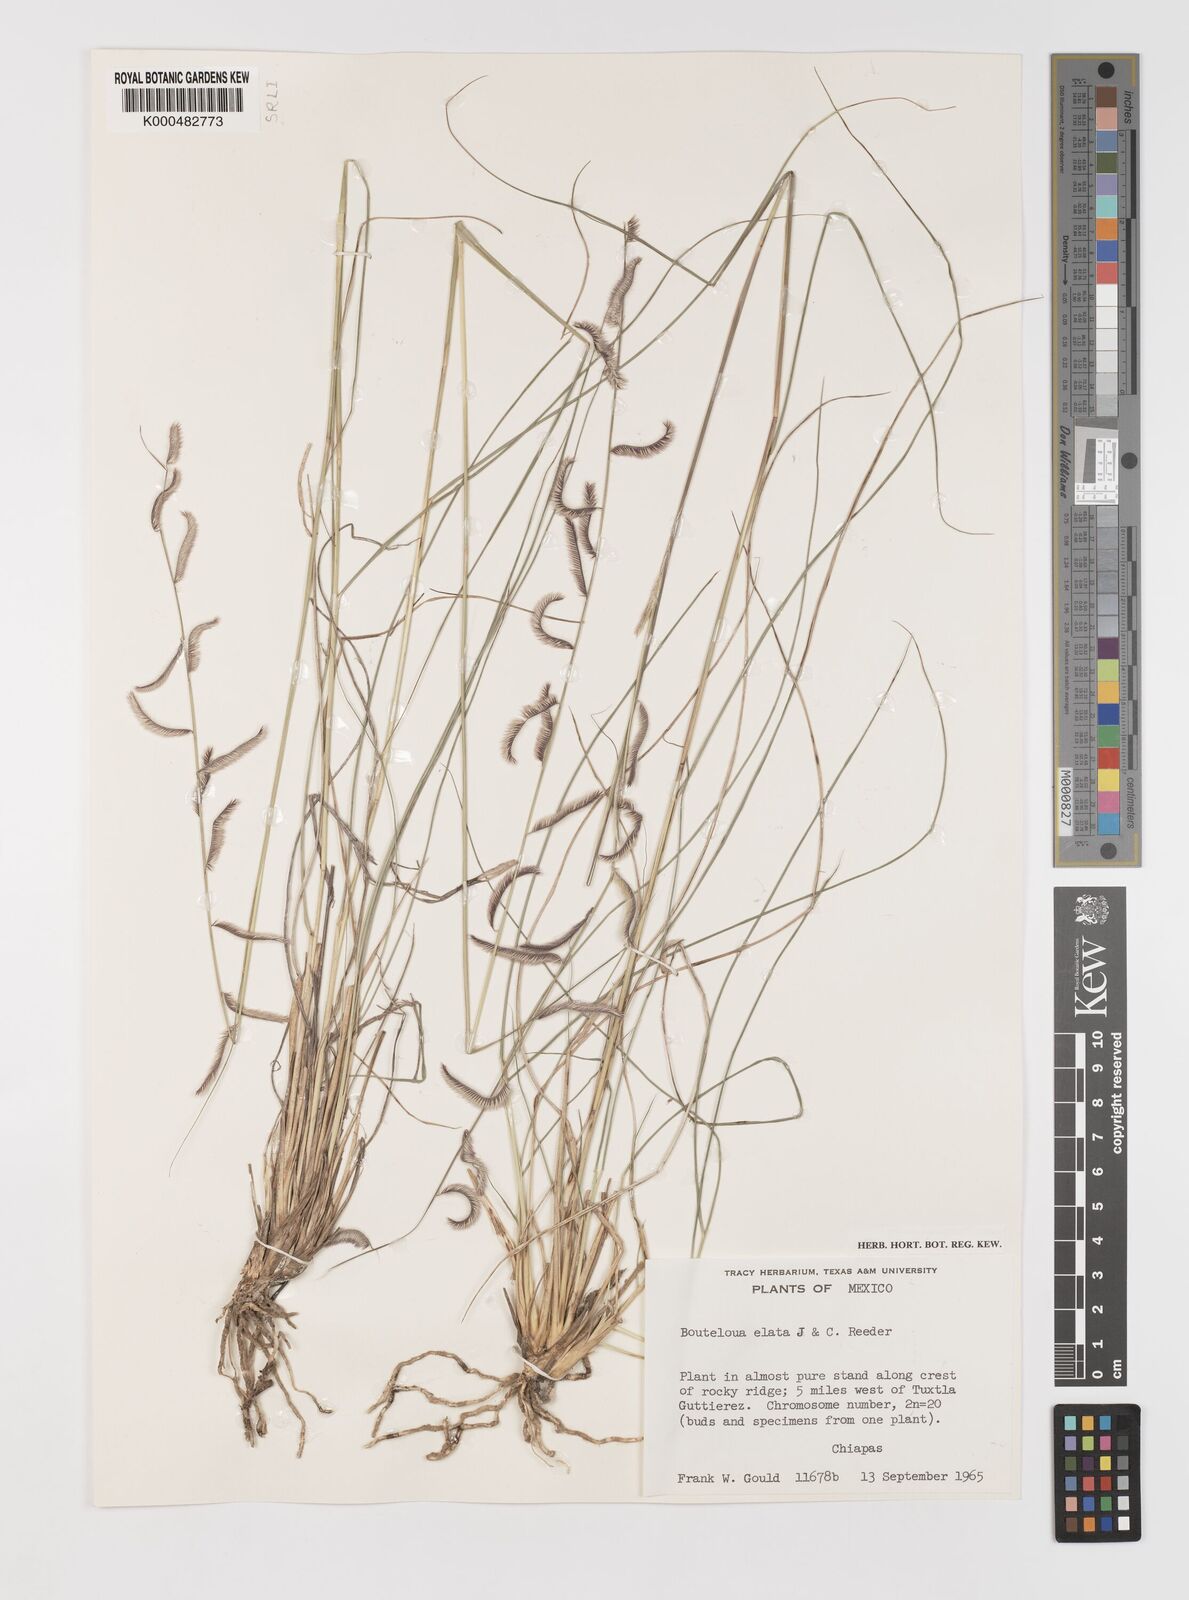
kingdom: Plantae
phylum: Tracheophyta
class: Liliopsida
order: Poales
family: Poaceae
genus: Bouteloua
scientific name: Bouteloua elata
